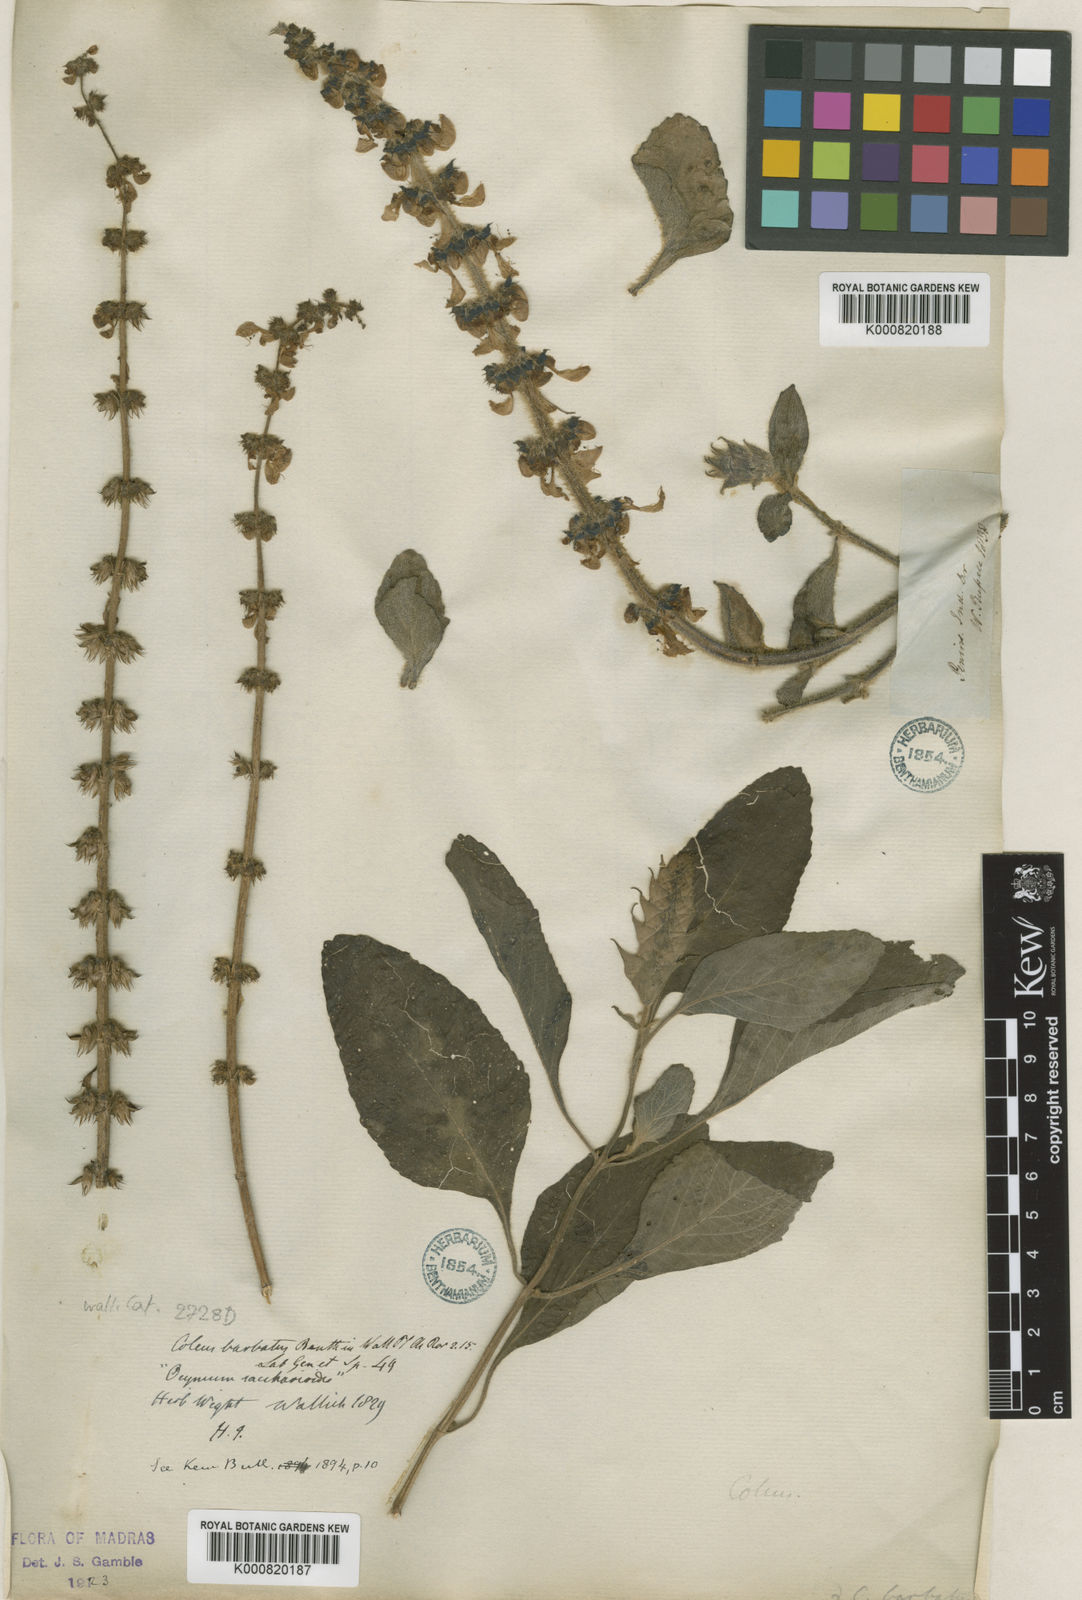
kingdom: Plantae
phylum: Tracheophyta
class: Magnoliopsida
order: Lamiales
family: Lamiaceae
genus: Coleus
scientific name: Coleus barbatus
